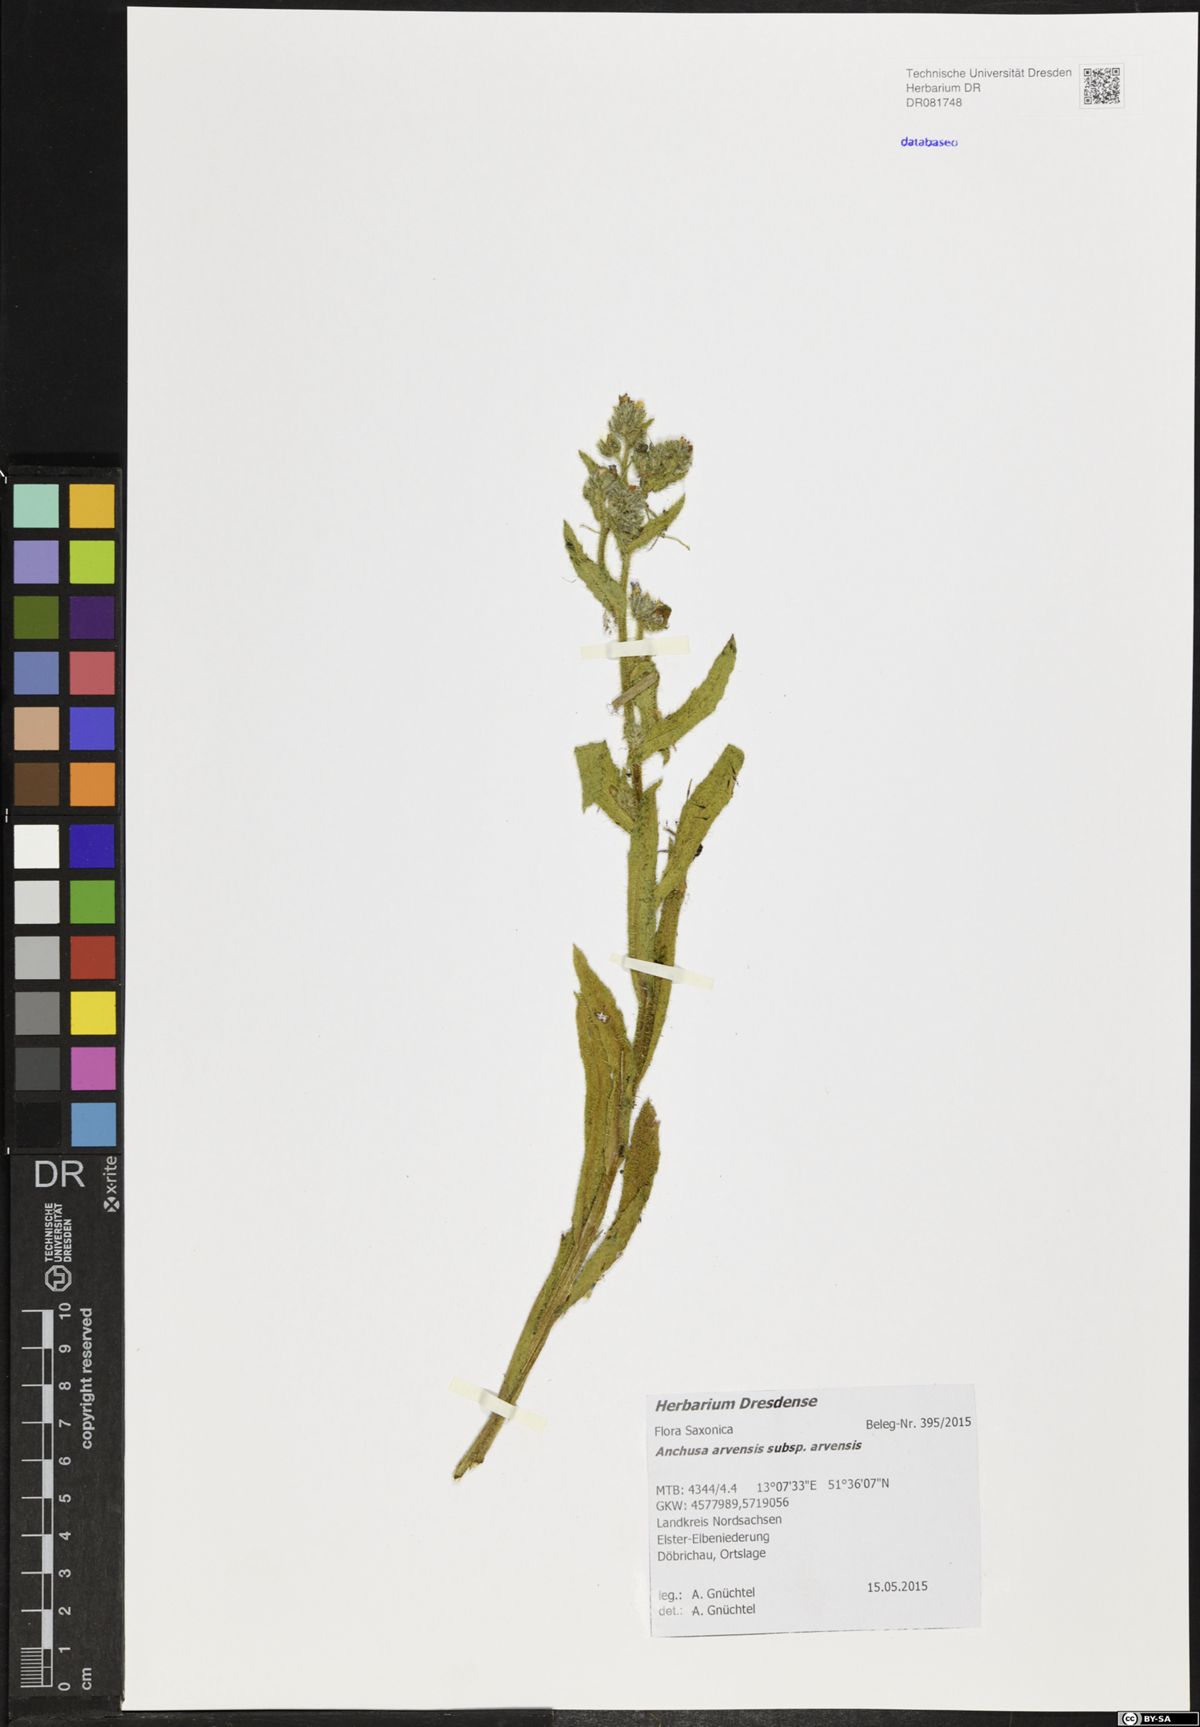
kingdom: Plantae
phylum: Tracheophyta
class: Magnoliopsida
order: Boraginales
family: Boraginaceae
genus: Lycopsis
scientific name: Lycopsis arvensis
